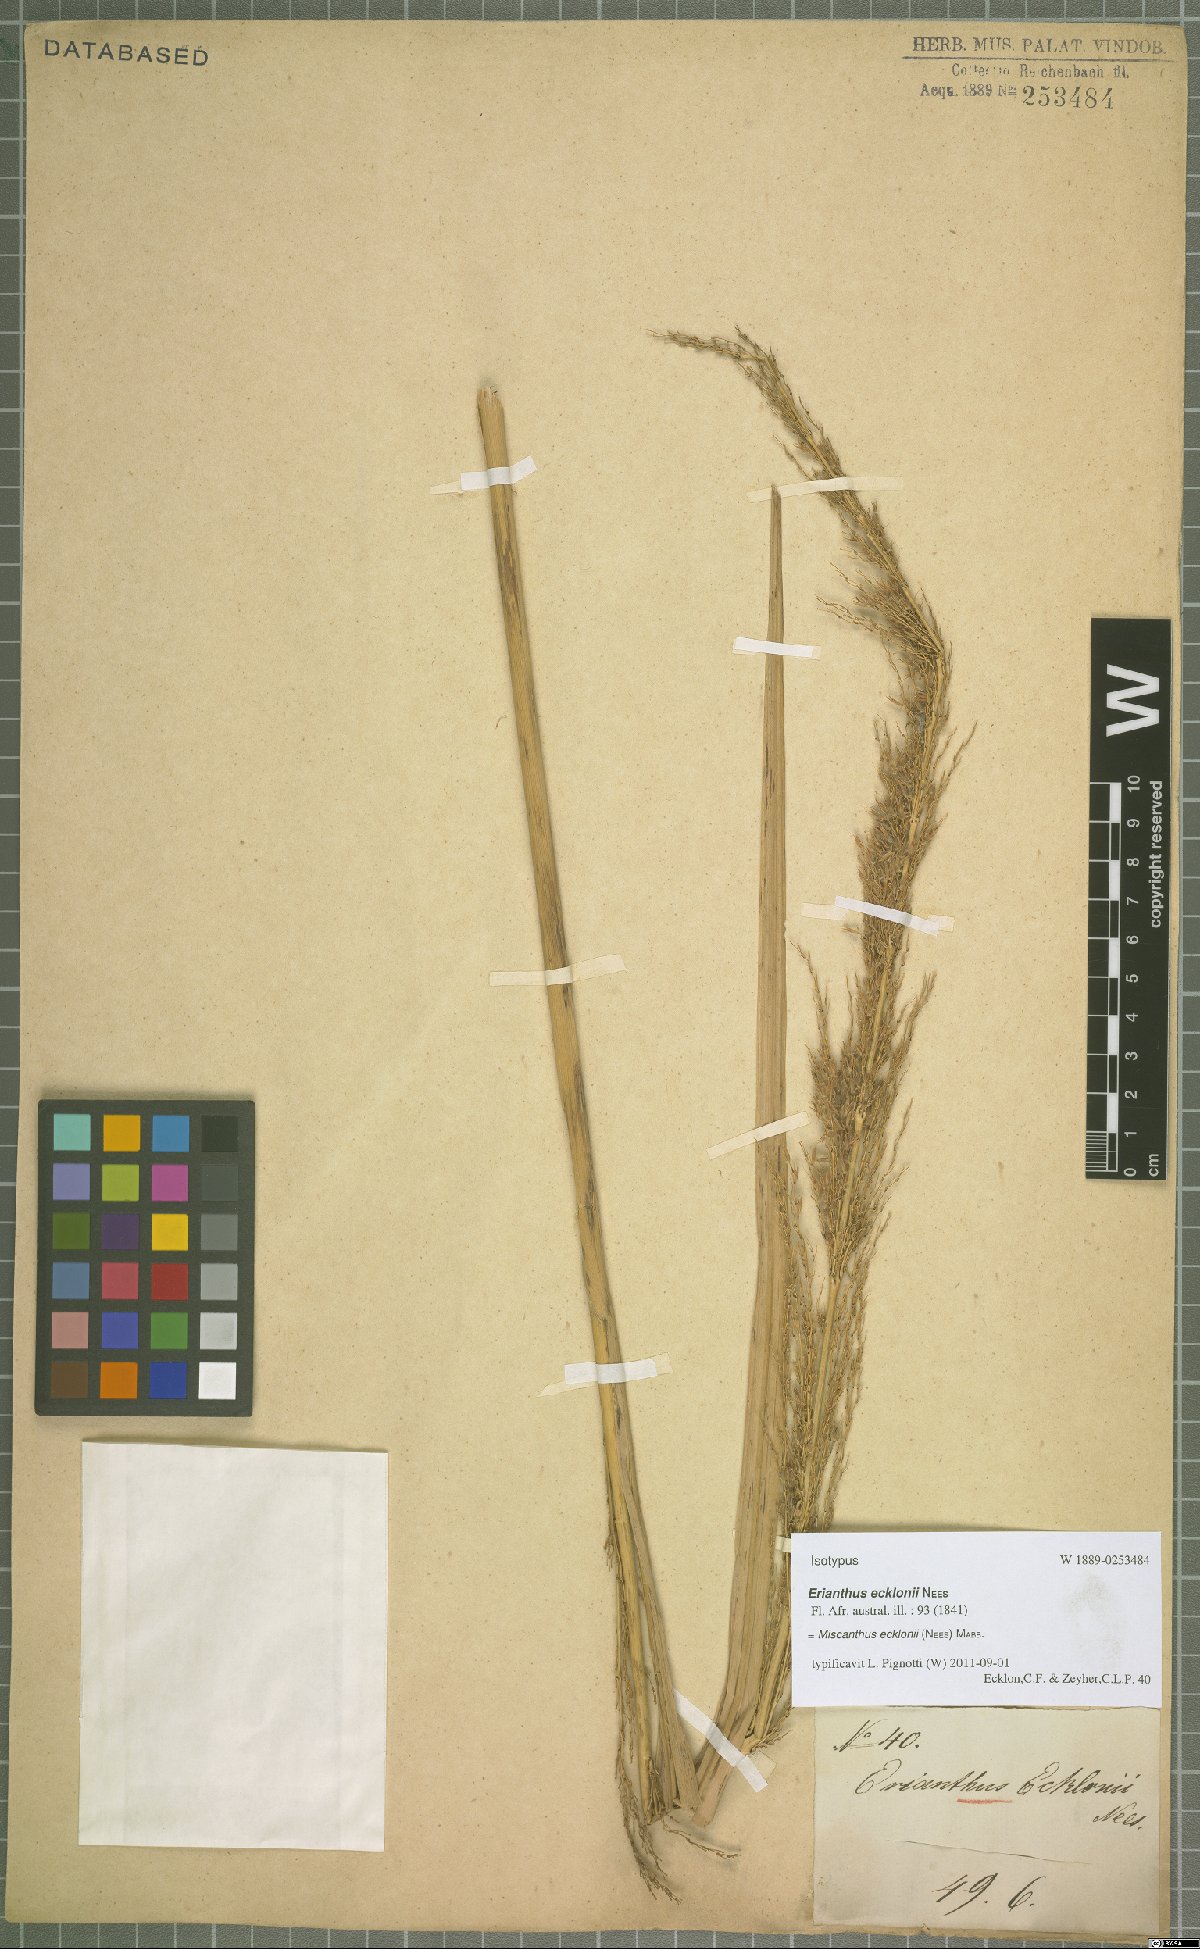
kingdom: Plantae
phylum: Tracheophyta
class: Liliopsida
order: Poales
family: Poaceae
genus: Miscanthus
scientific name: Miscanthus ecklonii
